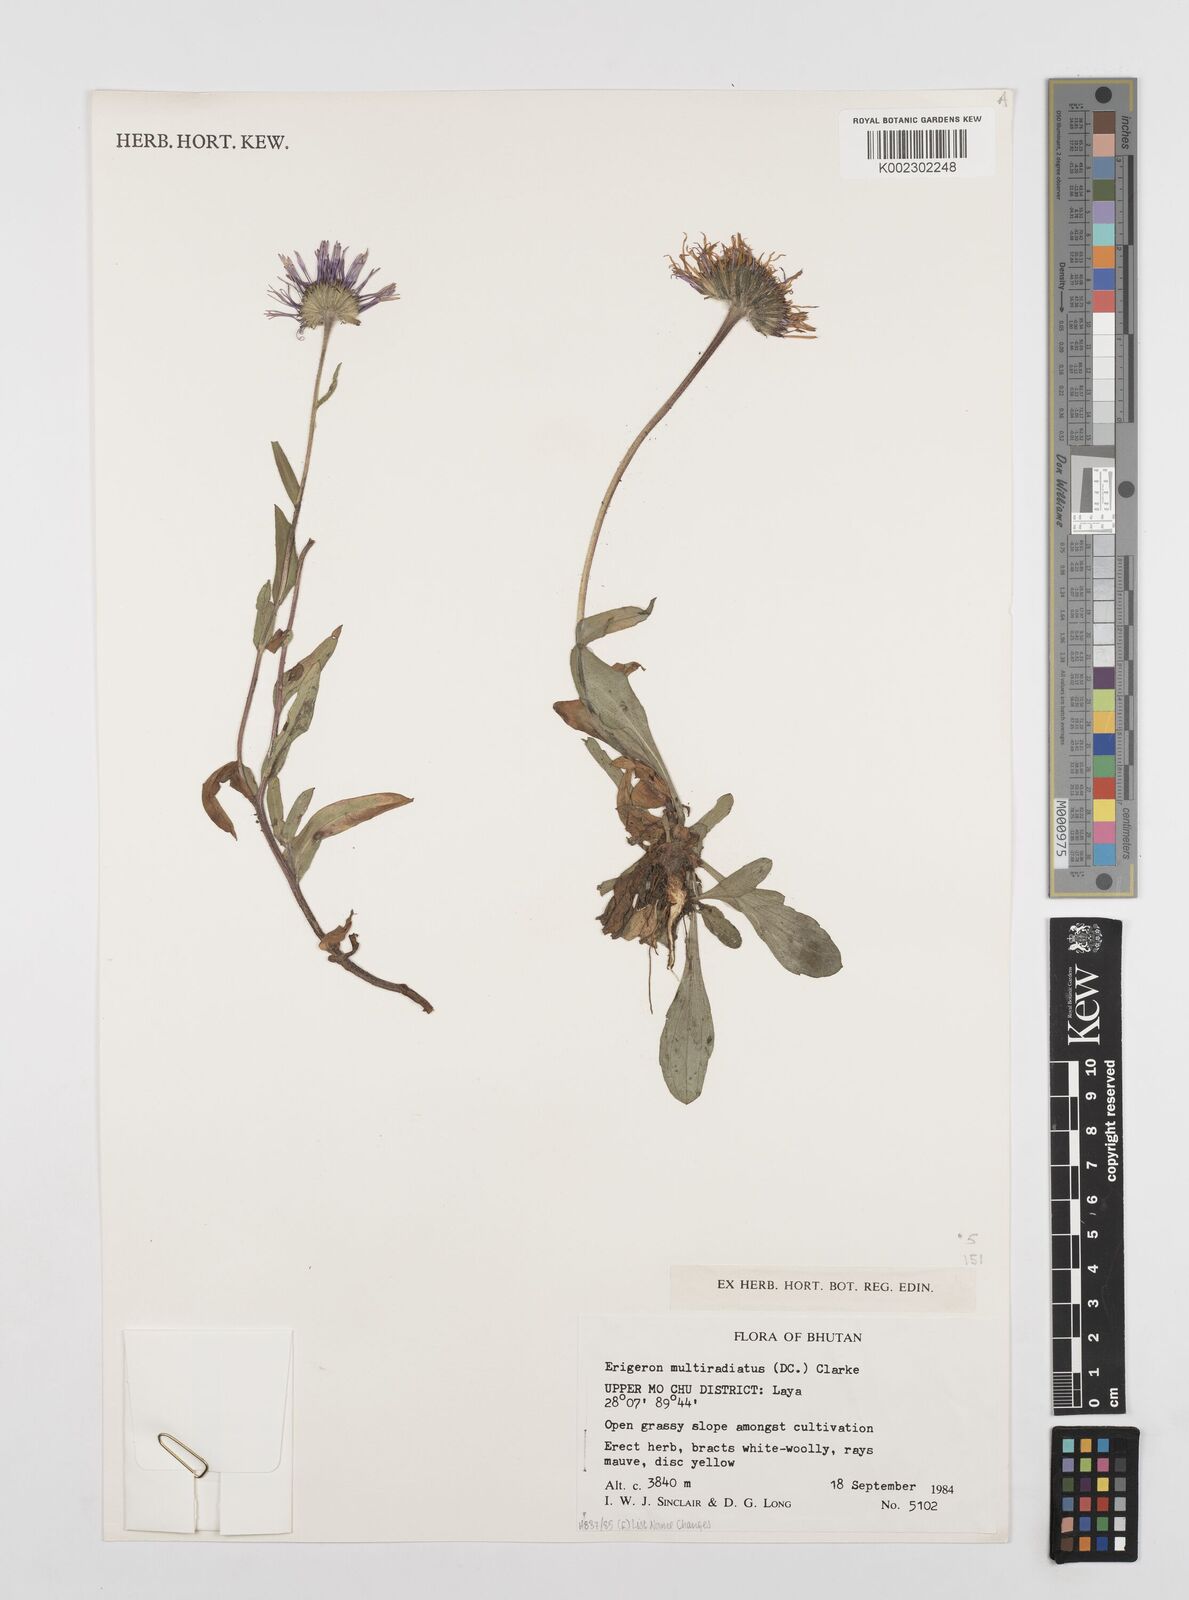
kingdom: Plantae
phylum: Tracheophyta
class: Magnoliopsida
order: Asterales
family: Asteraceae
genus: Erigeron
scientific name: Erigeron multiradiatus
